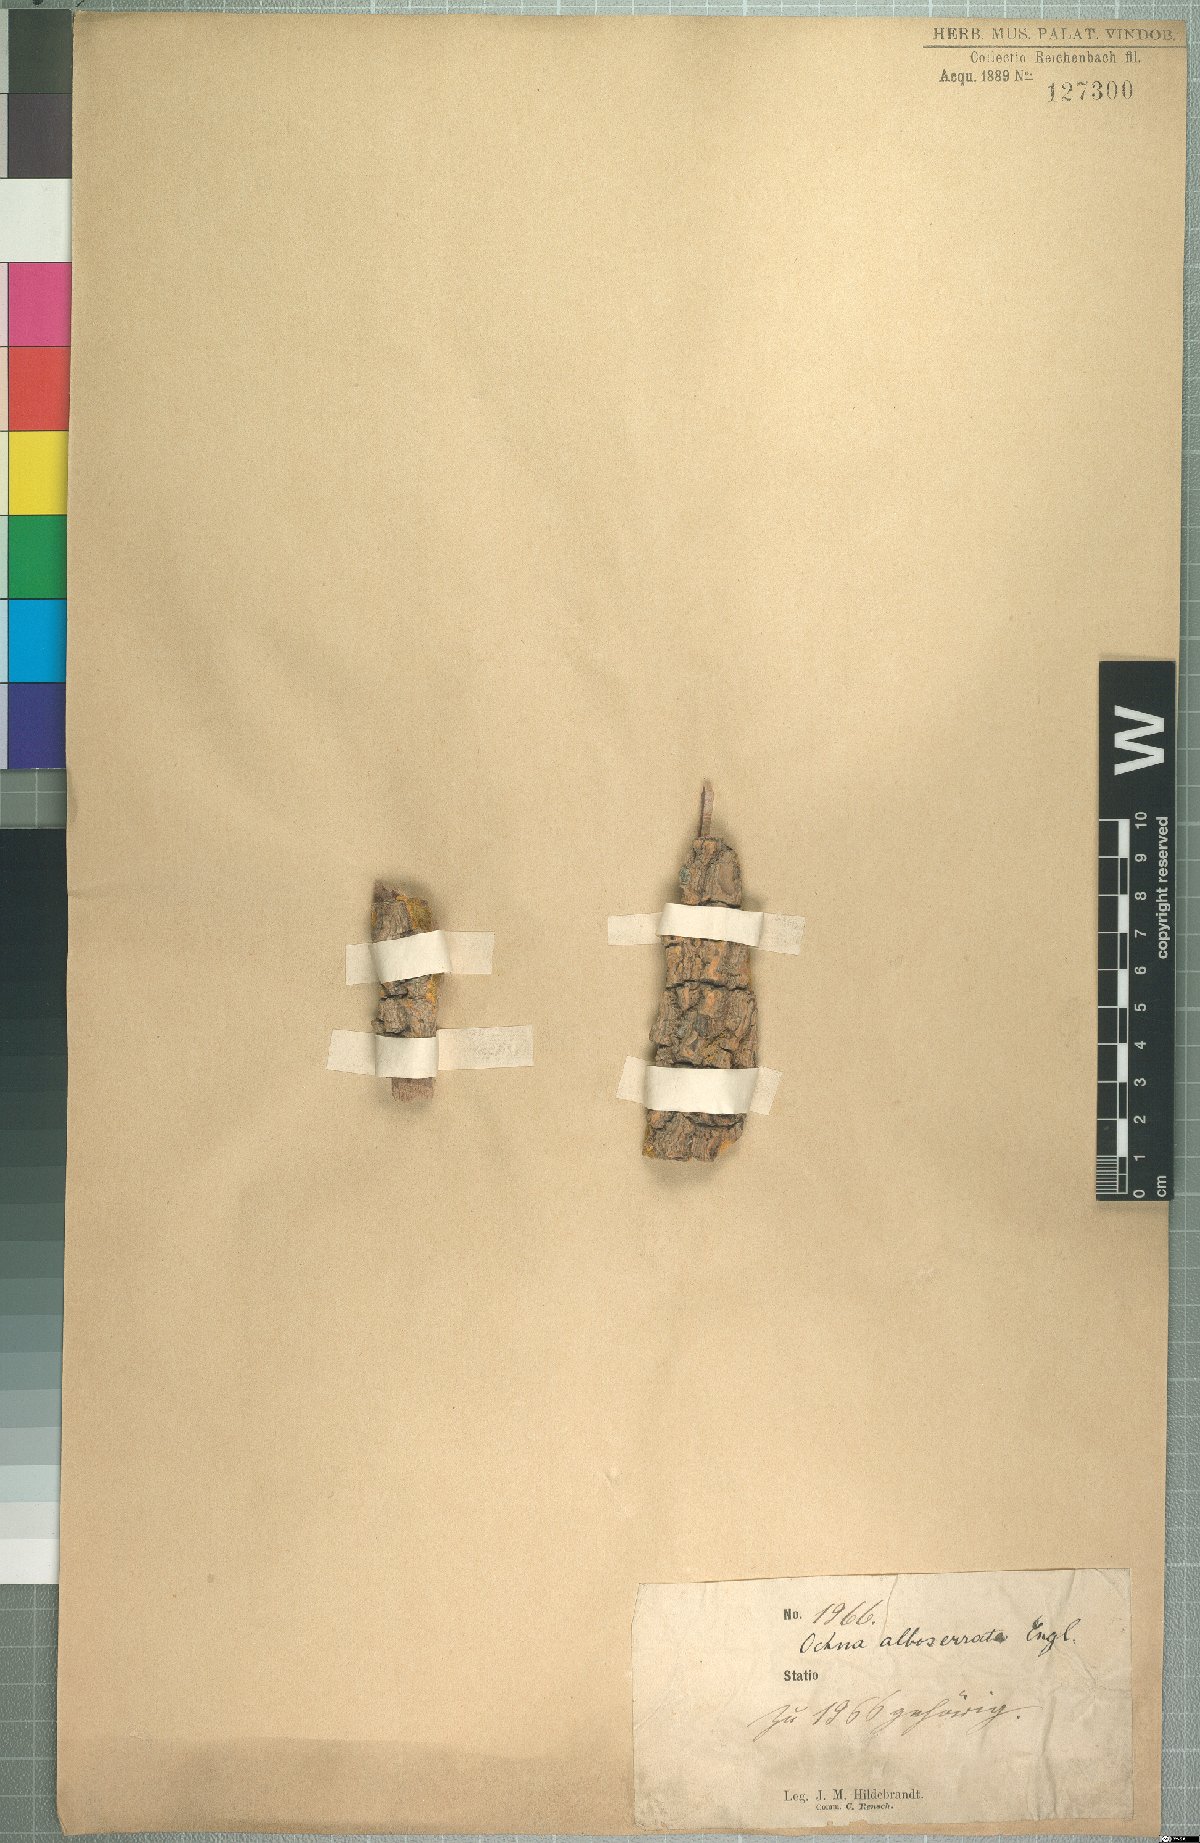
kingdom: Plantae
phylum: Tracheophyta
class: Magnoliopsida
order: Malpighiales
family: Ochnaceae
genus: Brackenridgea
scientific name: Brackenridgea zanguebarica
